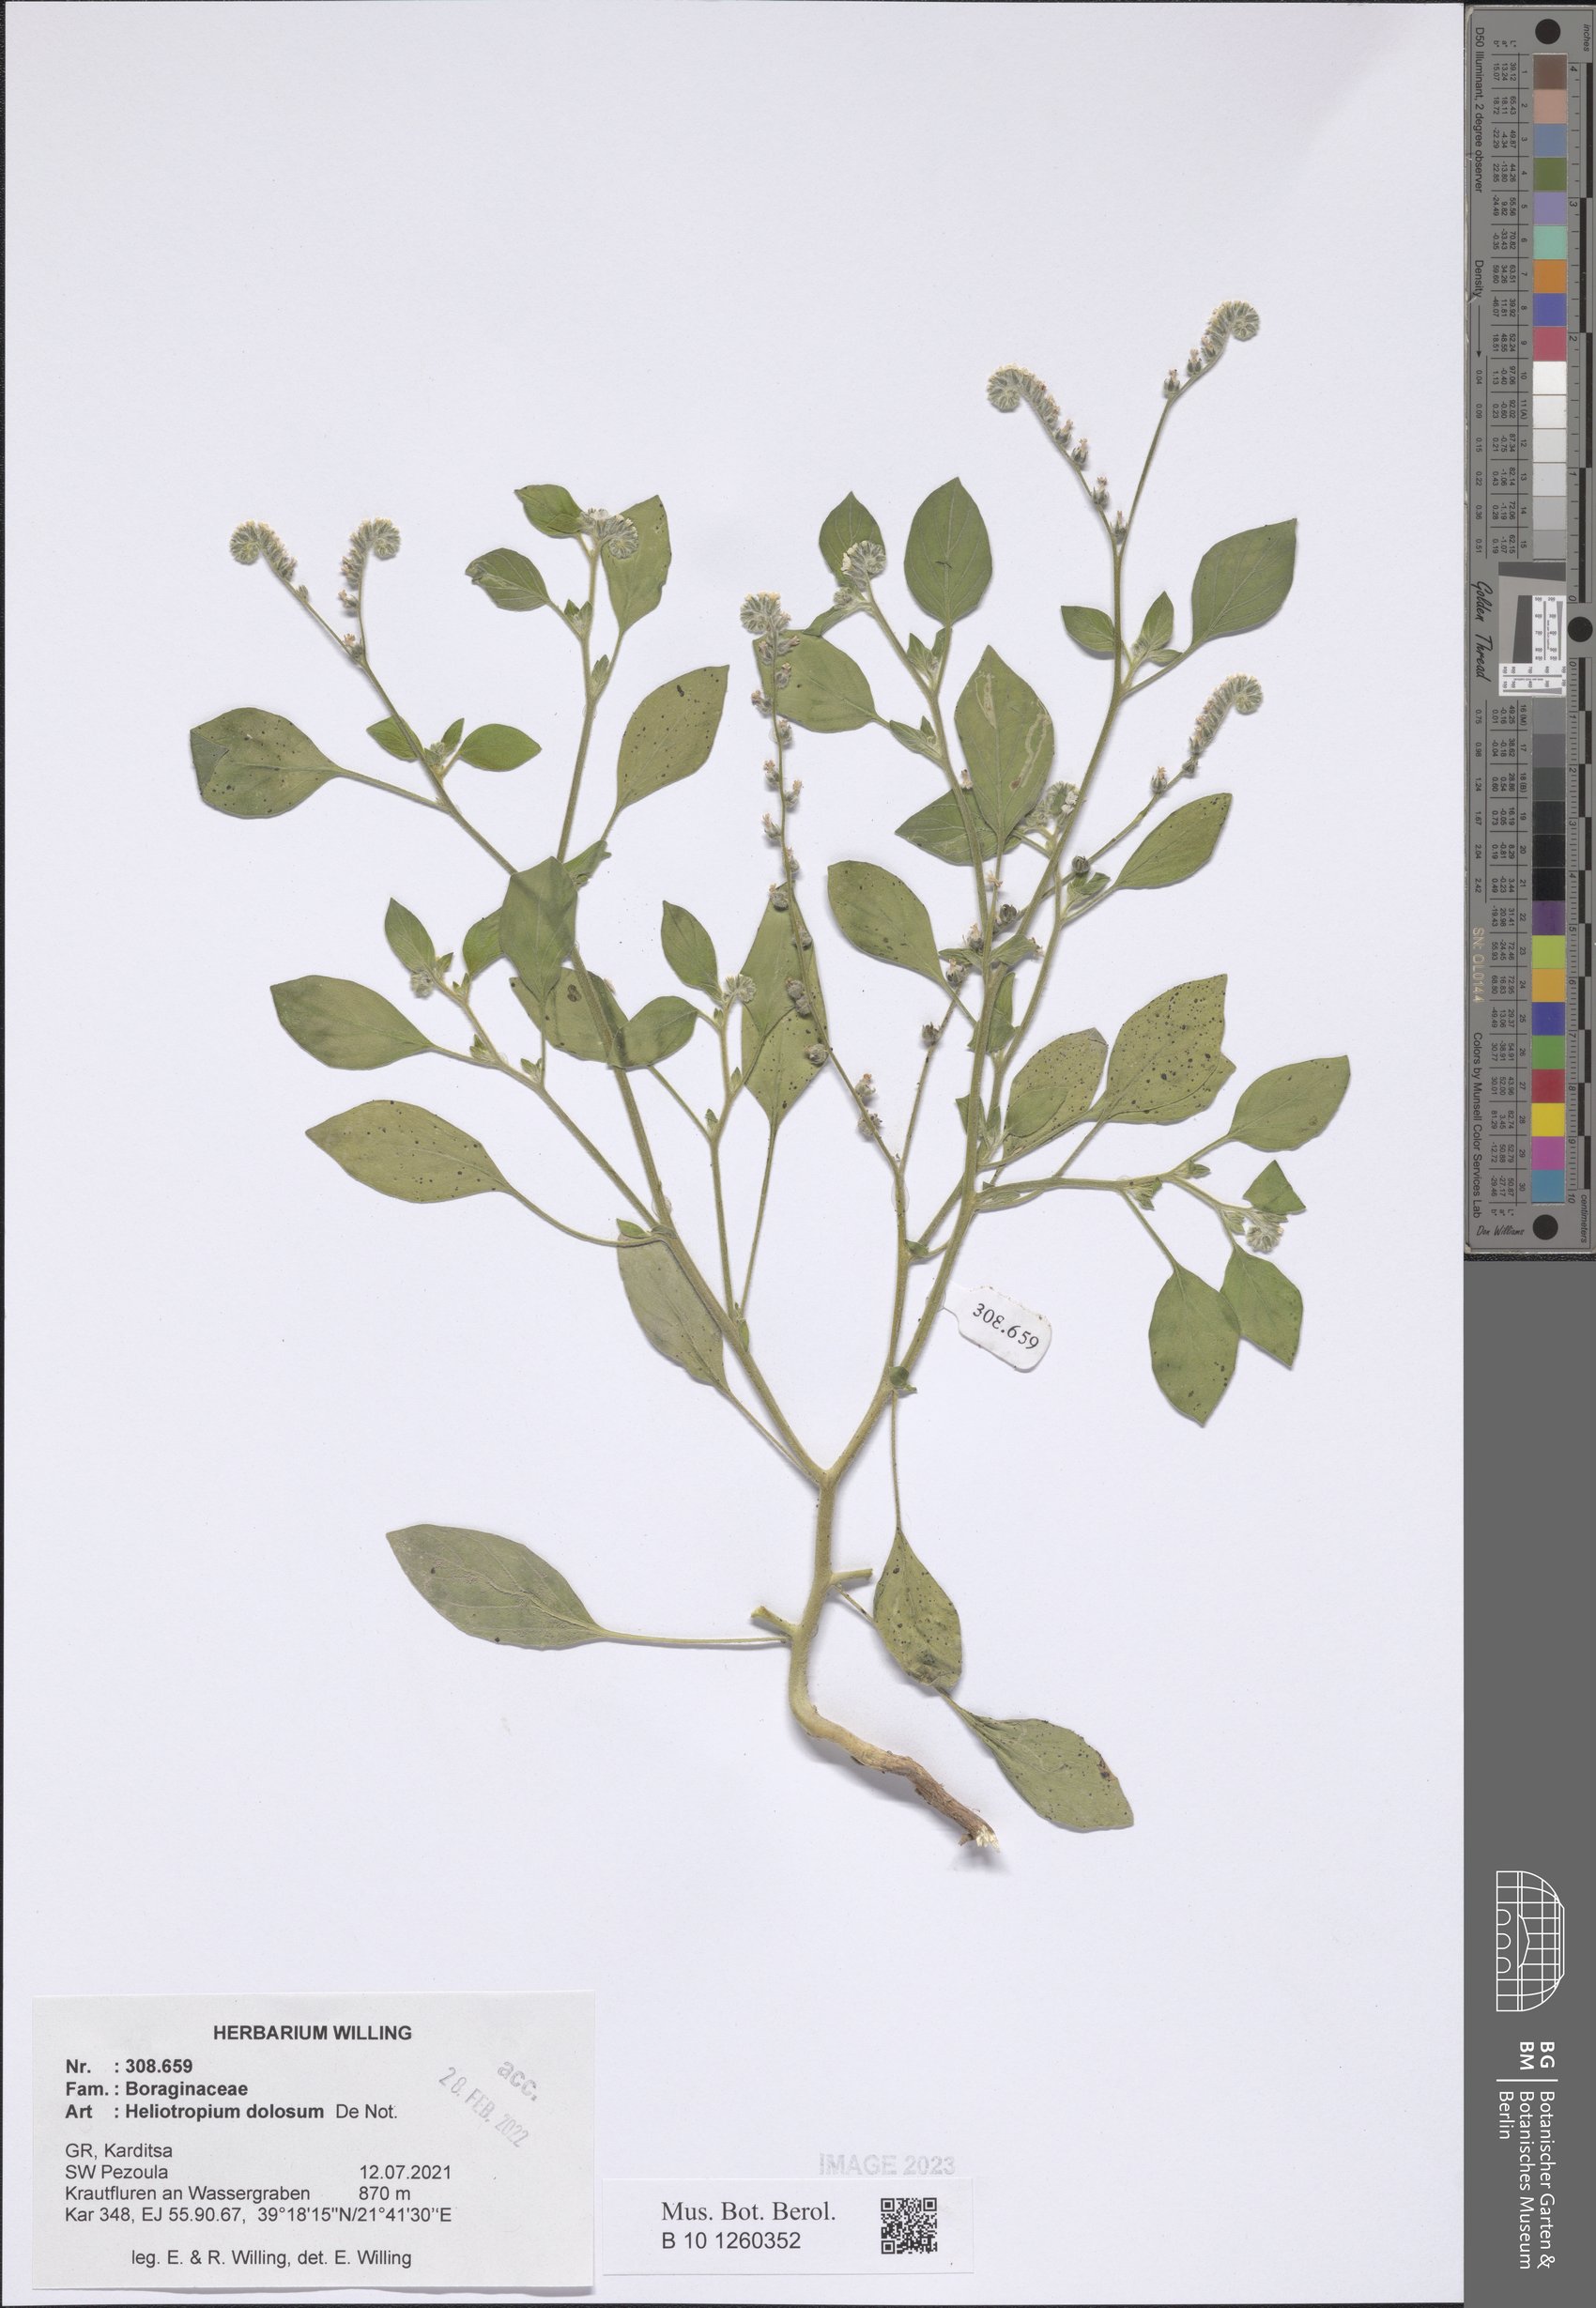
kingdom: Plantae
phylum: Tracheophyta
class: Magnoliopsida
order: Boraginales
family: Heliotropiaceae
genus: Heliotropium
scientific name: Heliotropium dolosum
